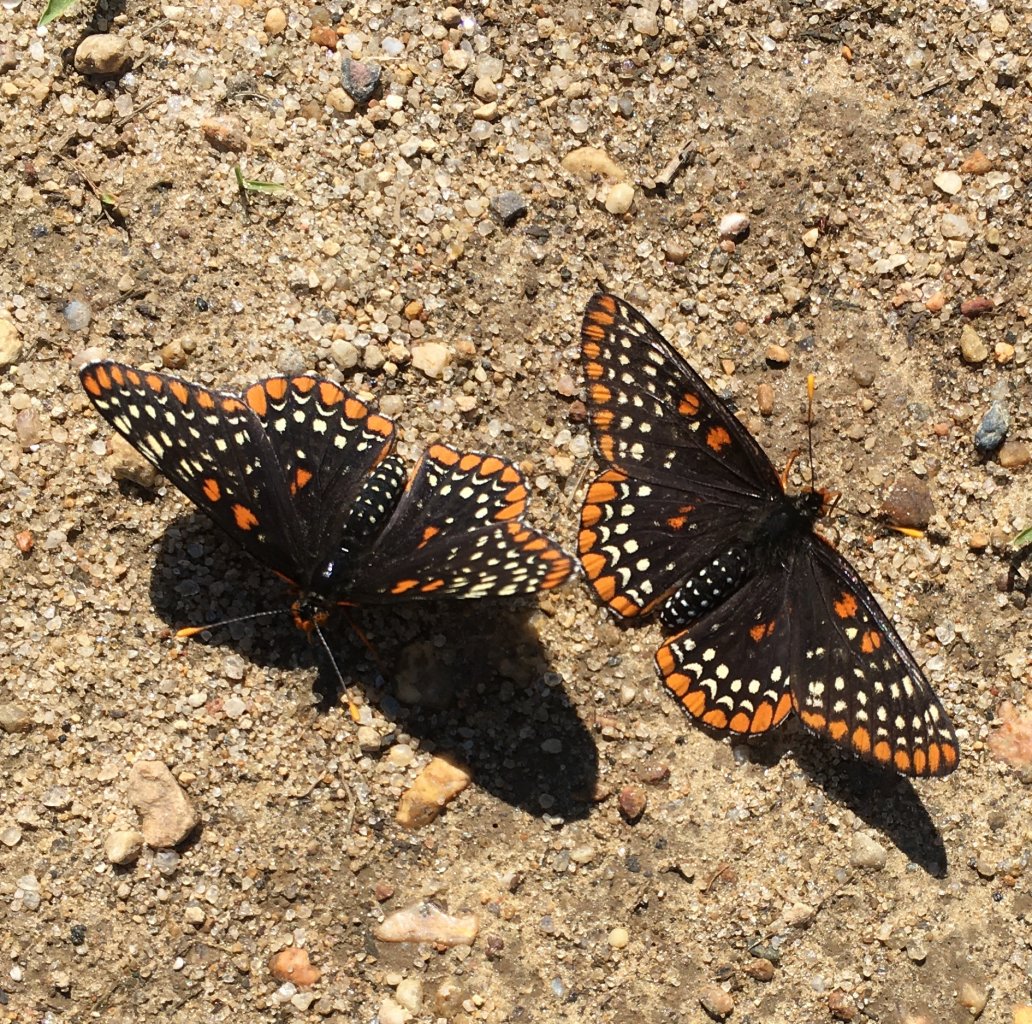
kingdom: Animalia
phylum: Arthropoda
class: Insecta
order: Lepidoptera
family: Nymphalidae
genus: Euphydryas
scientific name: Euphydryas phaeton
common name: Baltimore Checkerspot
